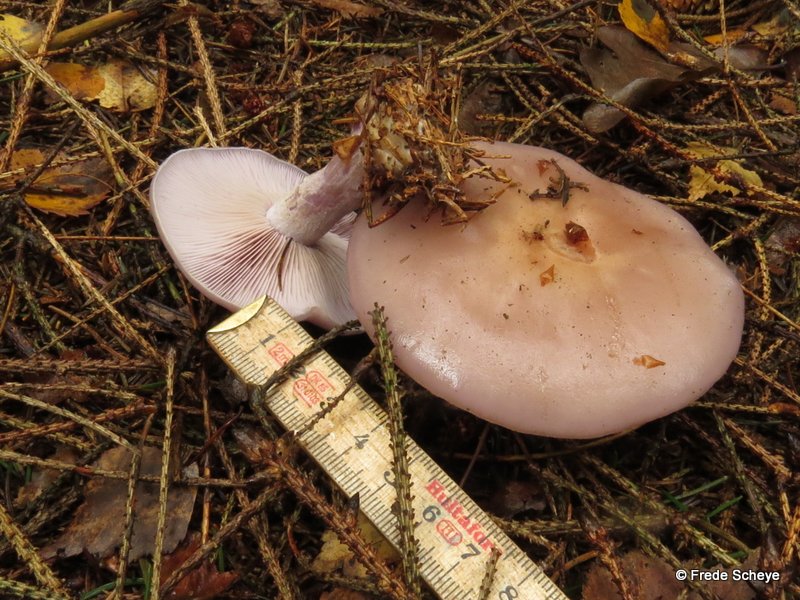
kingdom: Fungi
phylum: Basidiomycota
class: Agaricomycetes
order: Agaricales
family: Tricholomataceae
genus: Lepista
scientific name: Lepista nuda
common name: violet hekseringshat
